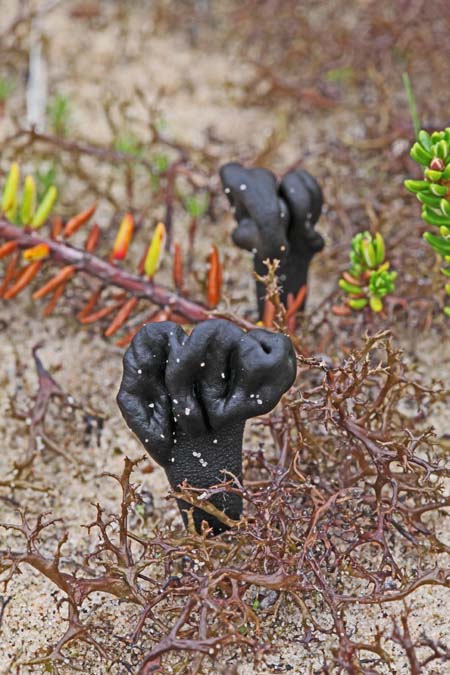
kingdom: Fungi
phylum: Ascomycota
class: Geoglossomycetes
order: Geoglossales
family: Geoglossaceae
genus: Sabuloglossum
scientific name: Sabuloglossum arenarium
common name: klit-jordtunge
